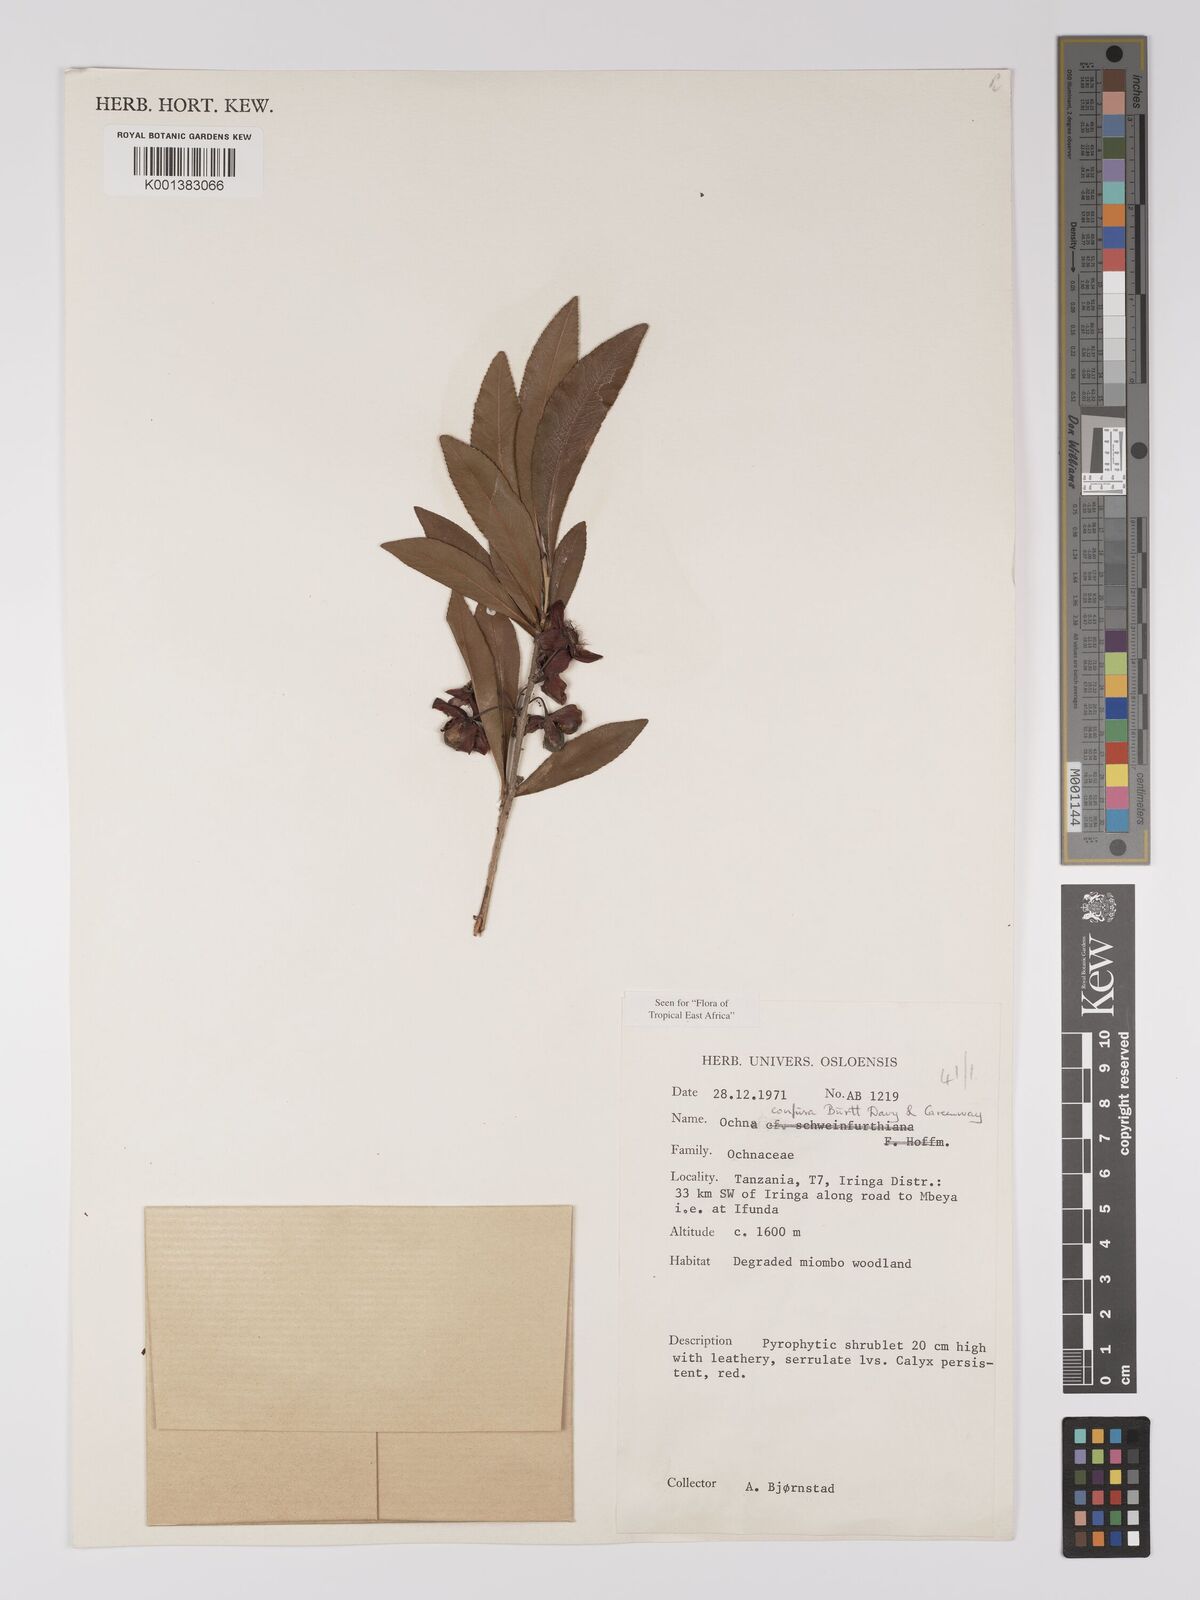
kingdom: Plantae
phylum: Tracheophyta
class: Magnoliopsida
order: Malpighiales
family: Ochnaceae
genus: Ochna
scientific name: Ochna confusa
